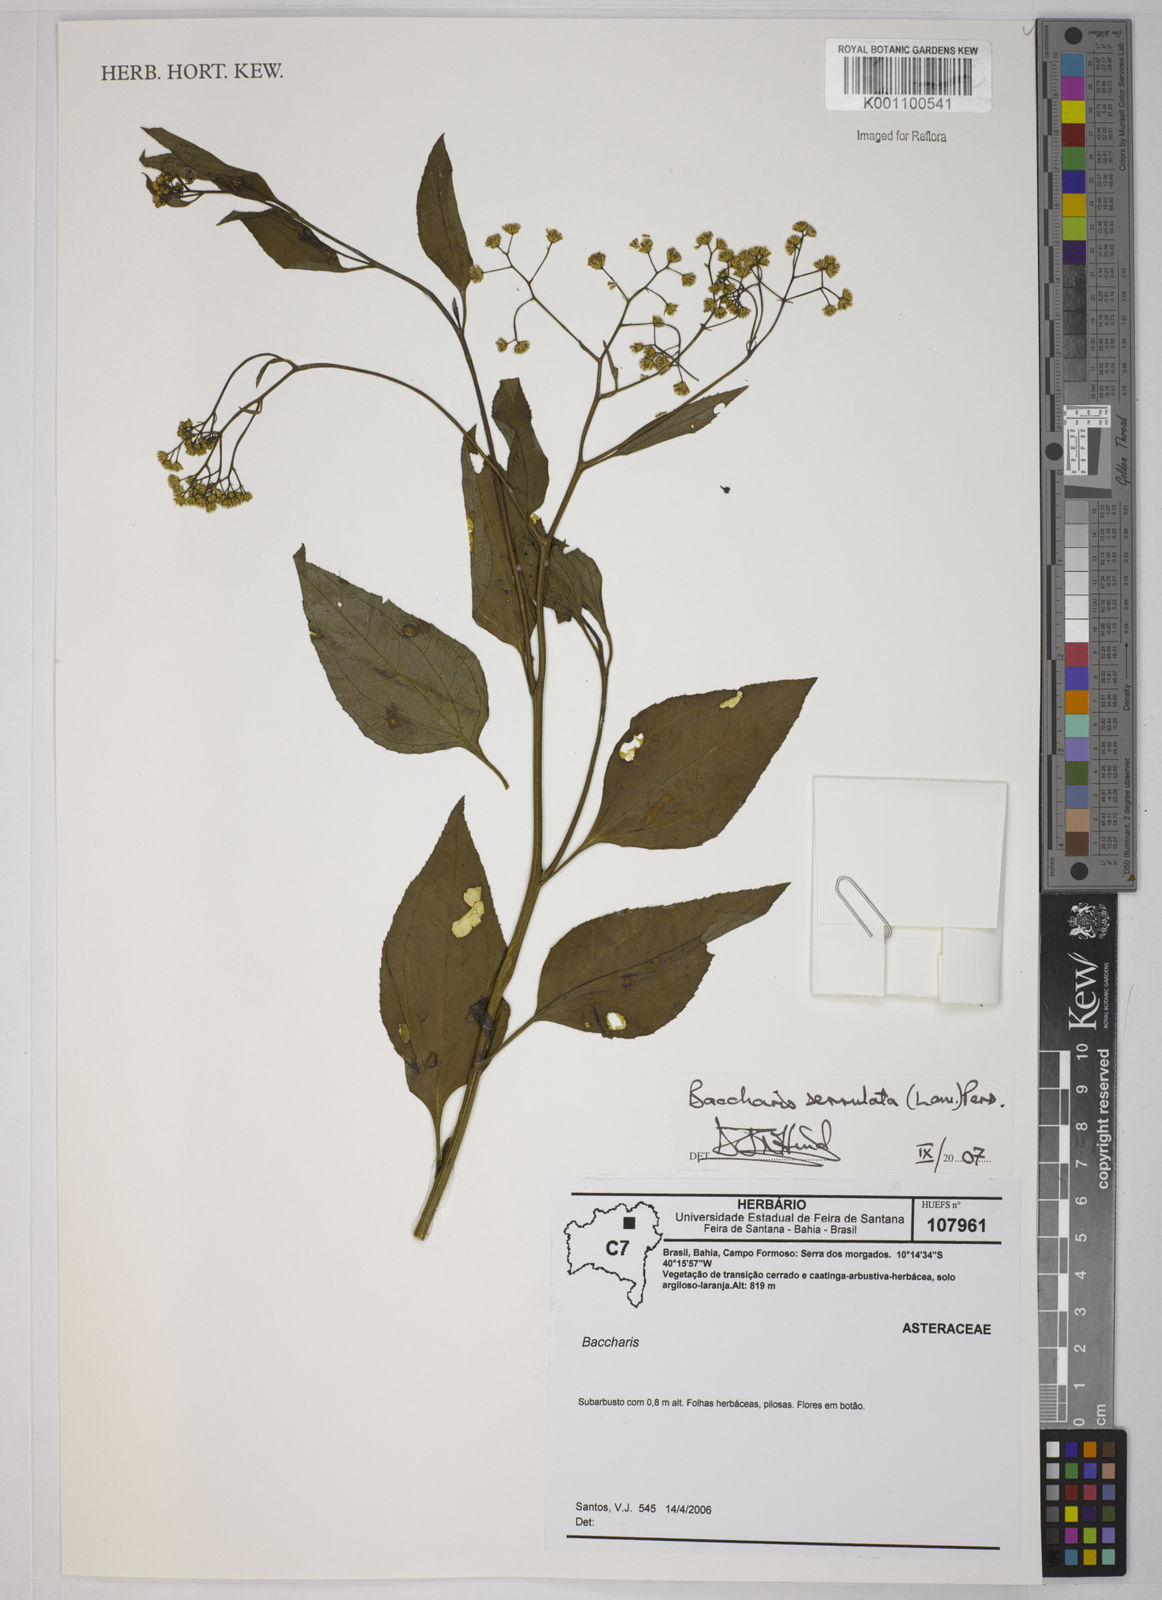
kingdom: Plantae
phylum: Tracheophyta
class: Magnoliopsida
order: Asterales
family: Asteraceae
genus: Baccharis
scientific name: Baccharis serrulata
